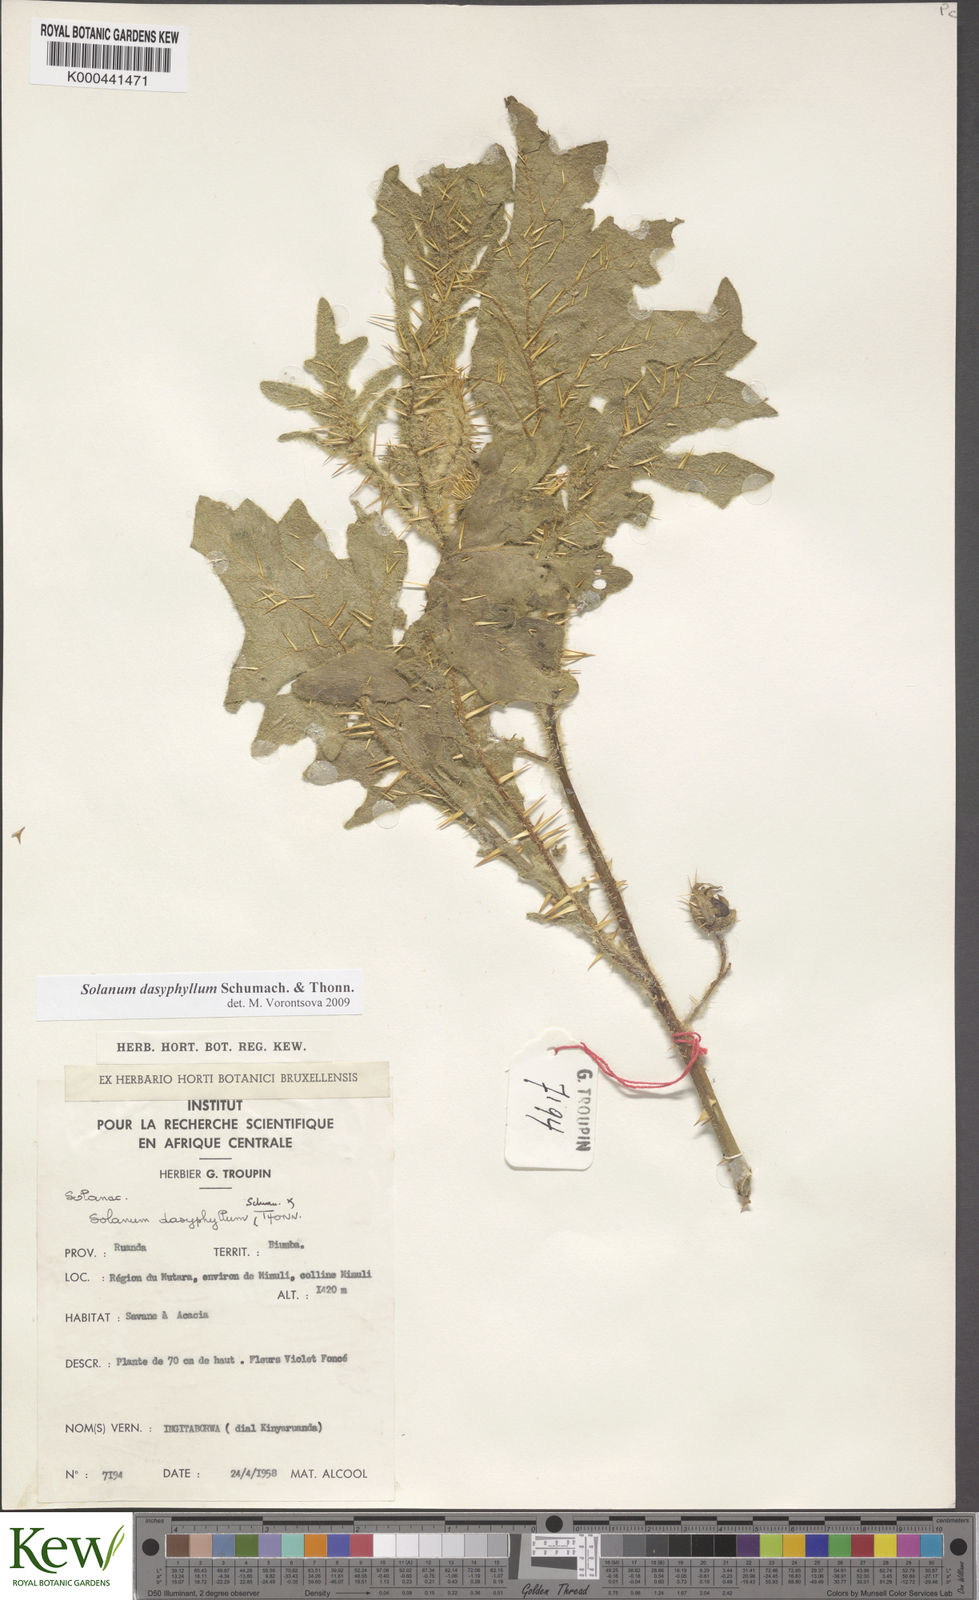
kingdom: Plantae
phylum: Tracheophyta
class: Magnoliopsida
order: Solanales
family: Solanaceae
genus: Solanum
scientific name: Solanum dasyphyllum
